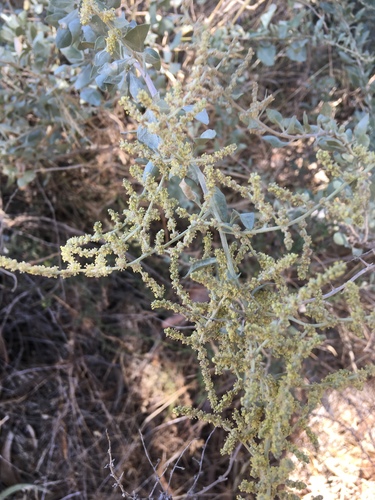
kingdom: Plantae
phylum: Tracheophyta
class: Magnoliopsida
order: Caryophyllales
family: Amaranthaceae
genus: Atriplex
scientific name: Atriplex halimus
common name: Shrubby orache
